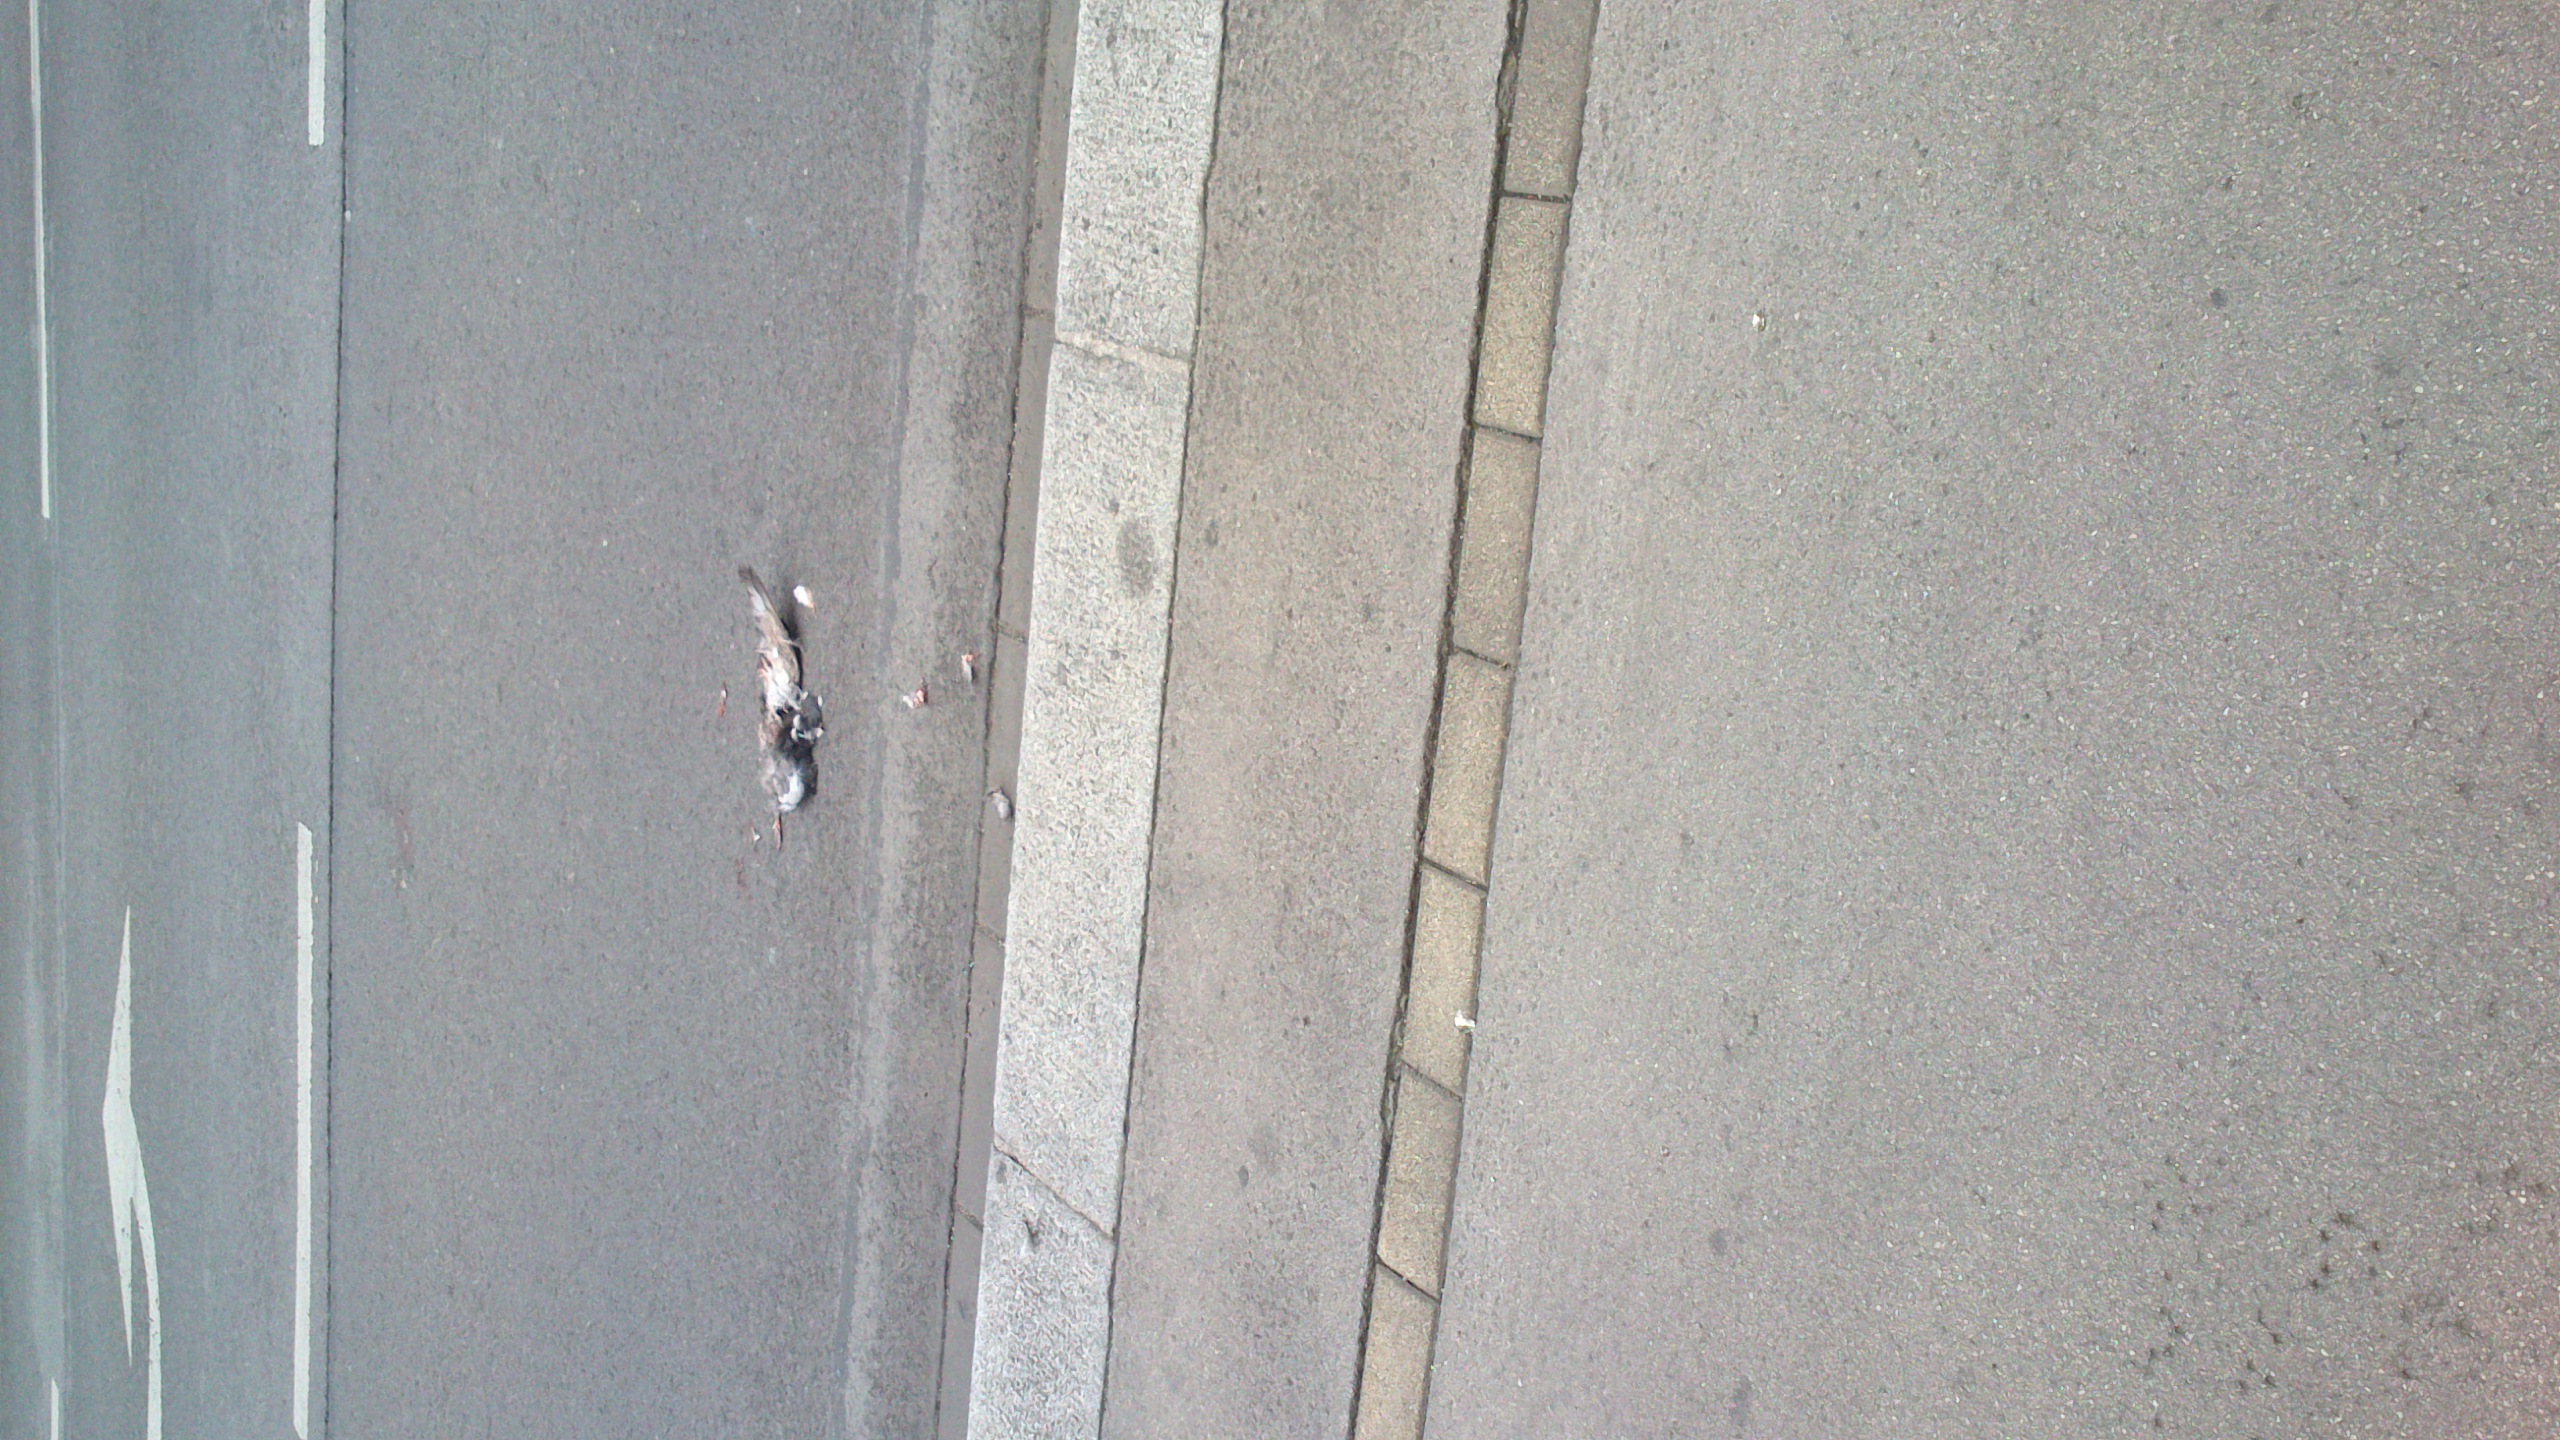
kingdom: Animalia
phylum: Chordata
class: Aves
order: Columbiformes
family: Columbidae
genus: Columba
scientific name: Columba livia
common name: Rock pigeon
